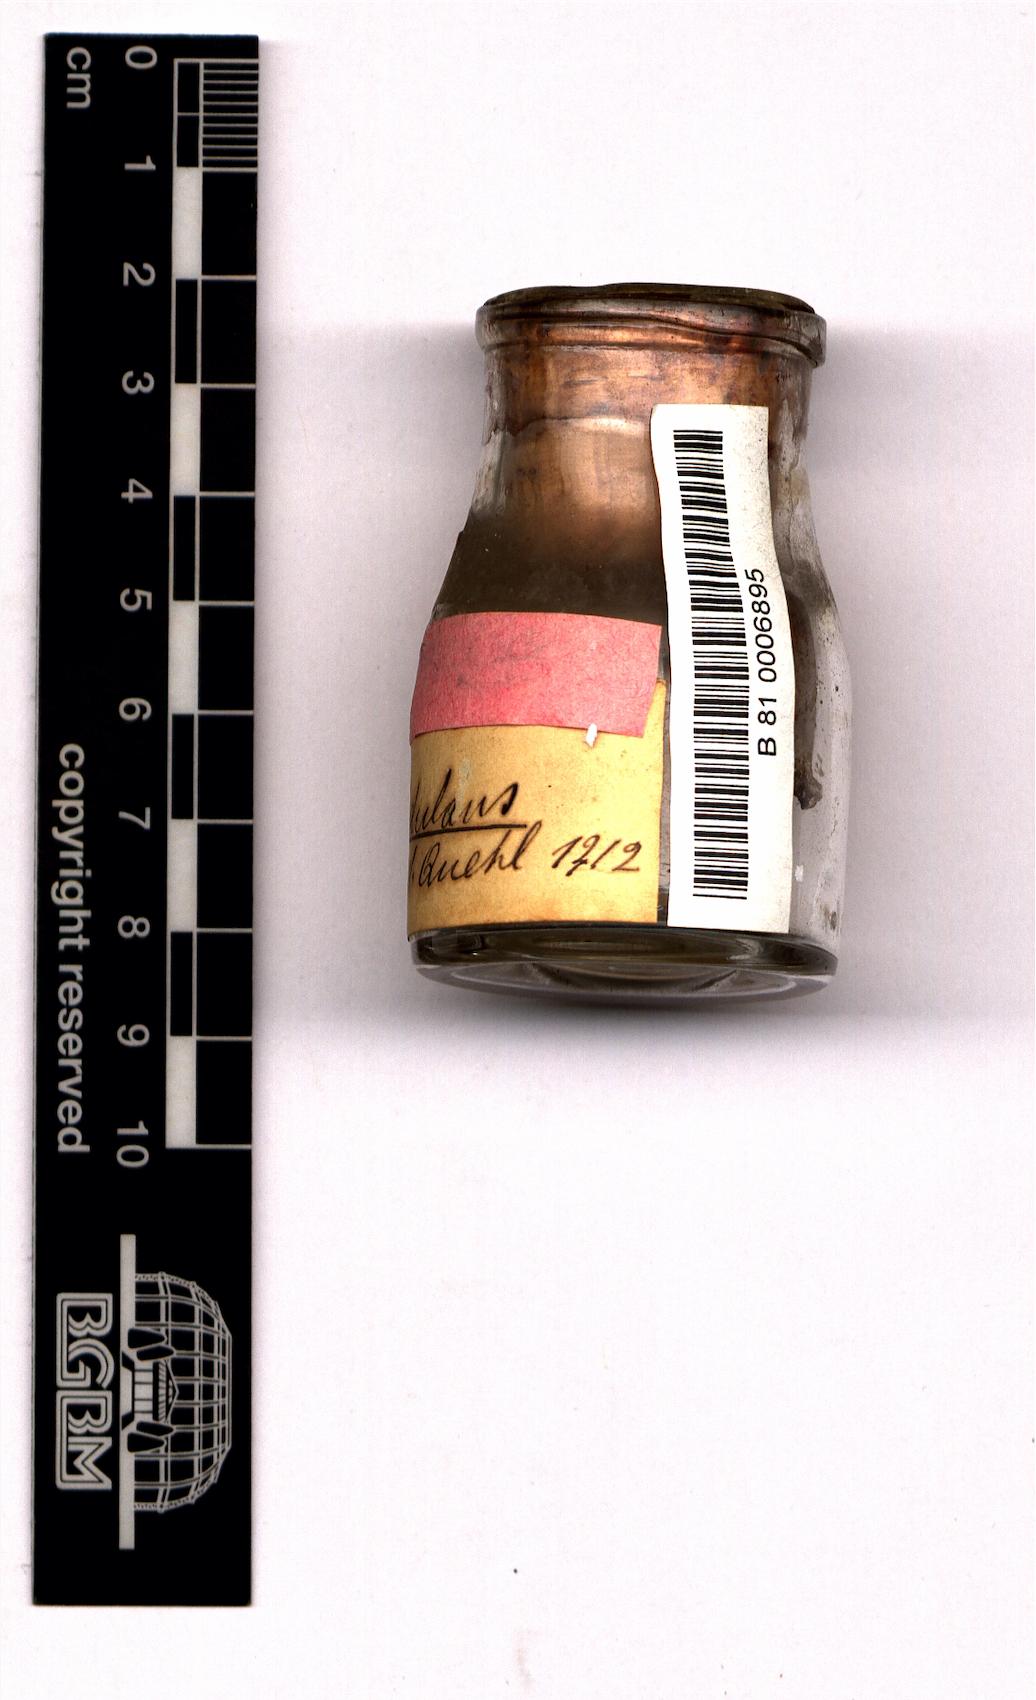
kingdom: Plantae
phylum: Tracheophyta
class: Magnoliopsida
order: Caryophyllales
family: Cactaceae
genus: Thelocactus
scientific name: Thelocactus rinconensis
